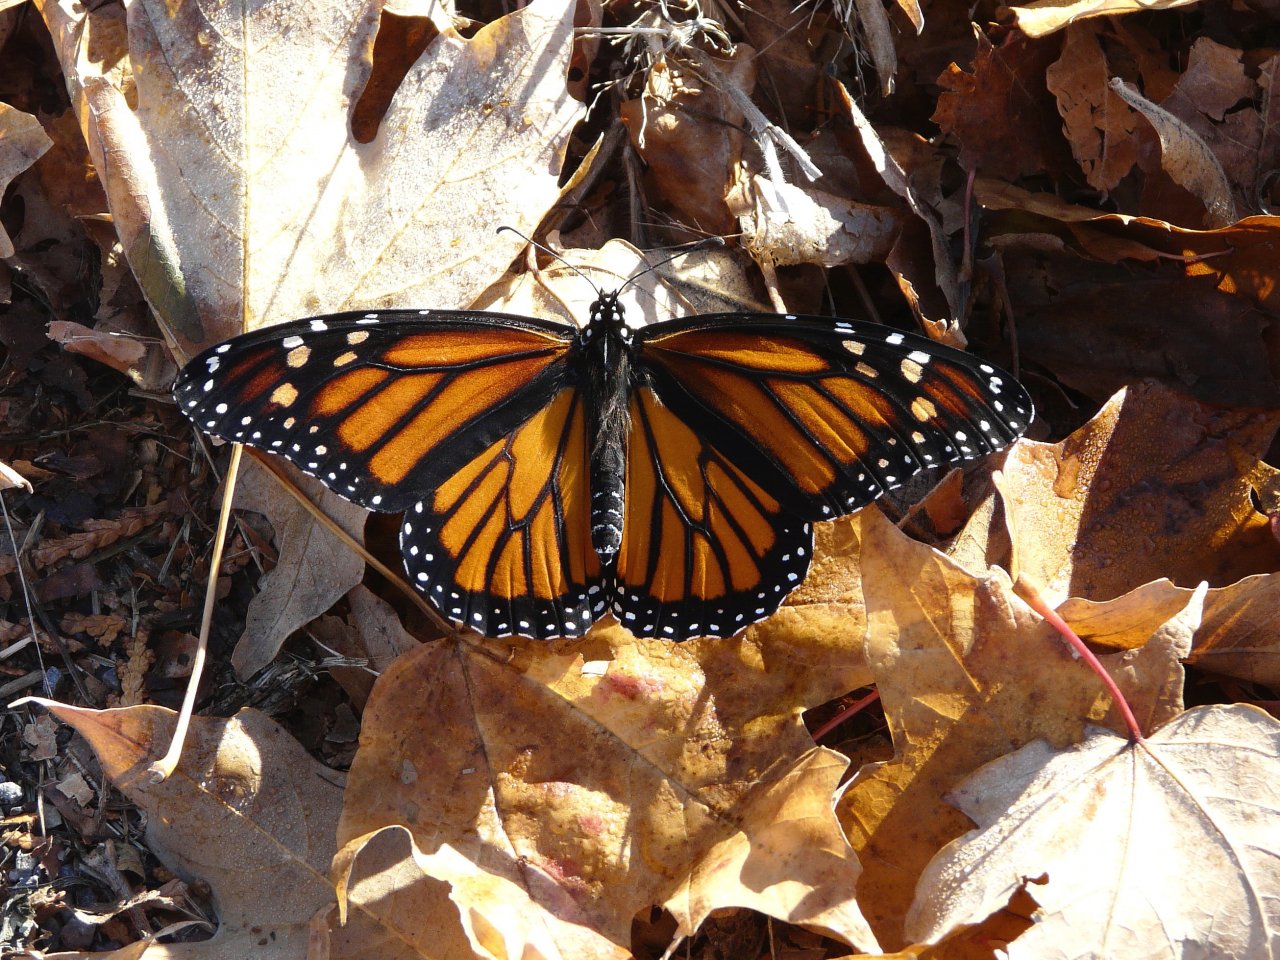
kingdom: Animalia
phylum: Arthropoda
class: Insecta
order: Lepidoptera
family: Nymphalidae
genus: Danaus
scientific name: Danaus plexippus
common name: Monarch
